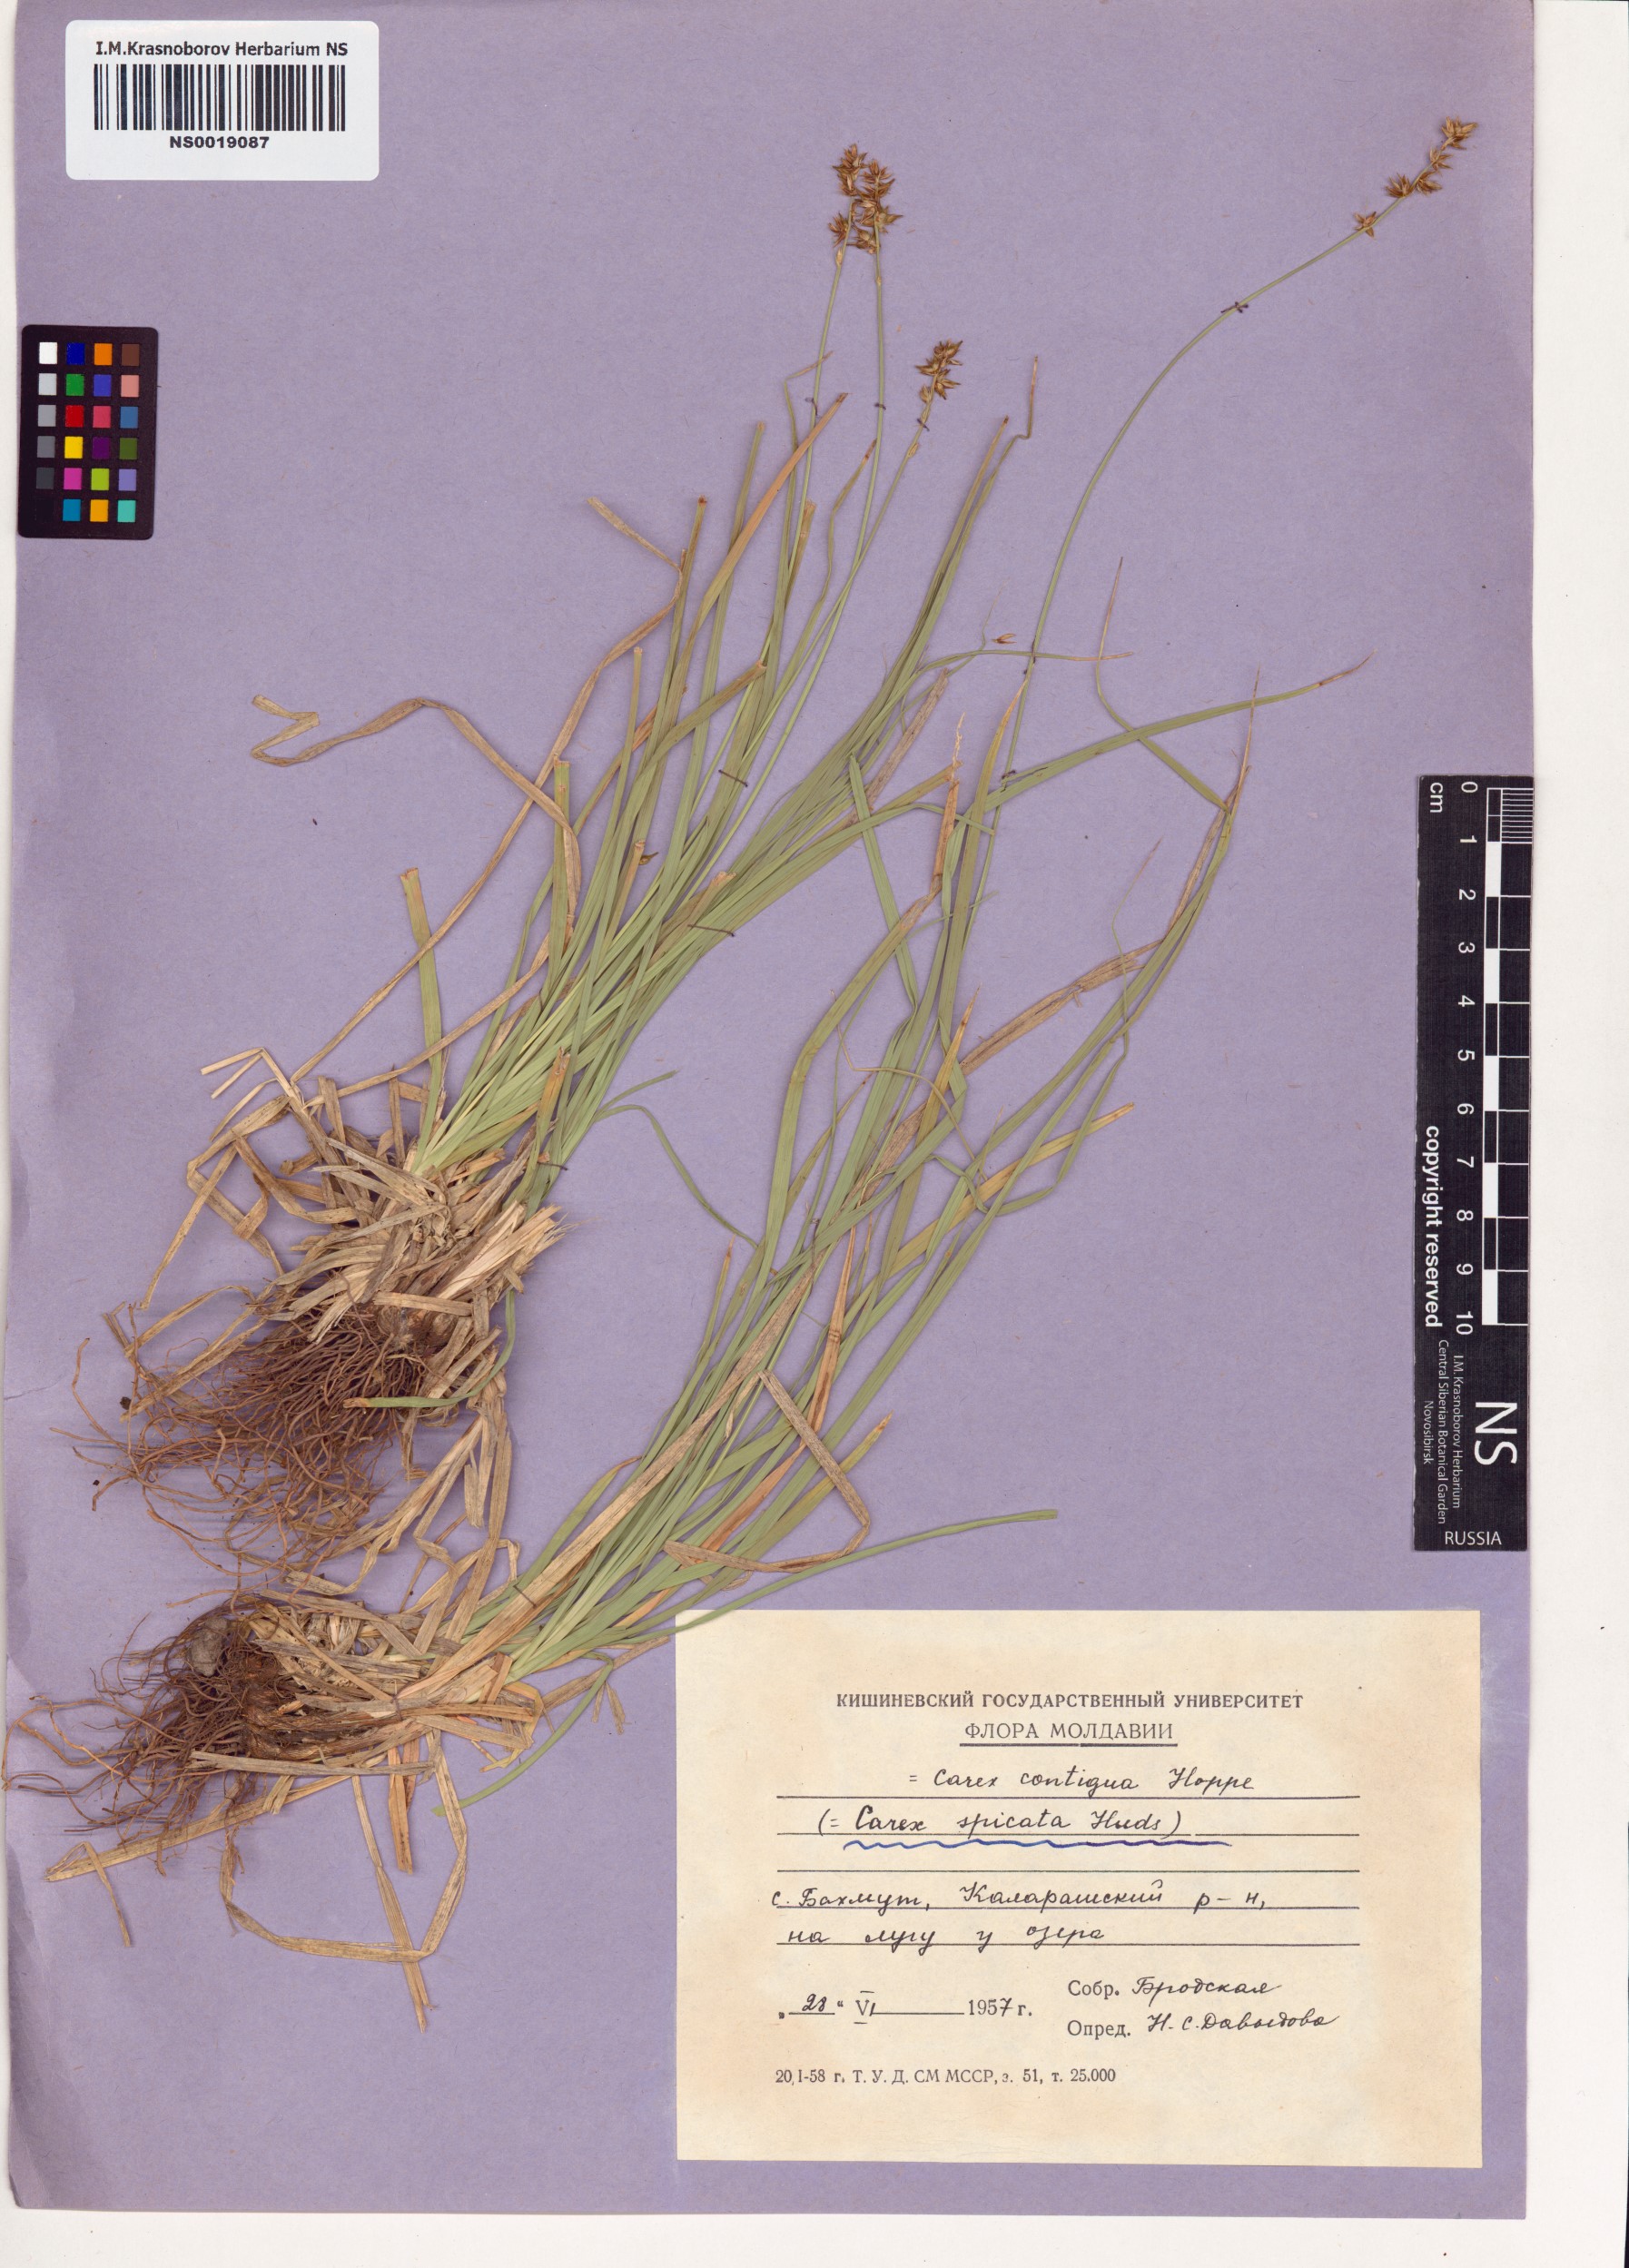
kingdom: Plantae
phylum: Tracheophyta
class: Liliopsida
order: Poales
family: Cyperaceae
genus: Carex
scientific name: Carex spicata
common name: Spiked sedge
